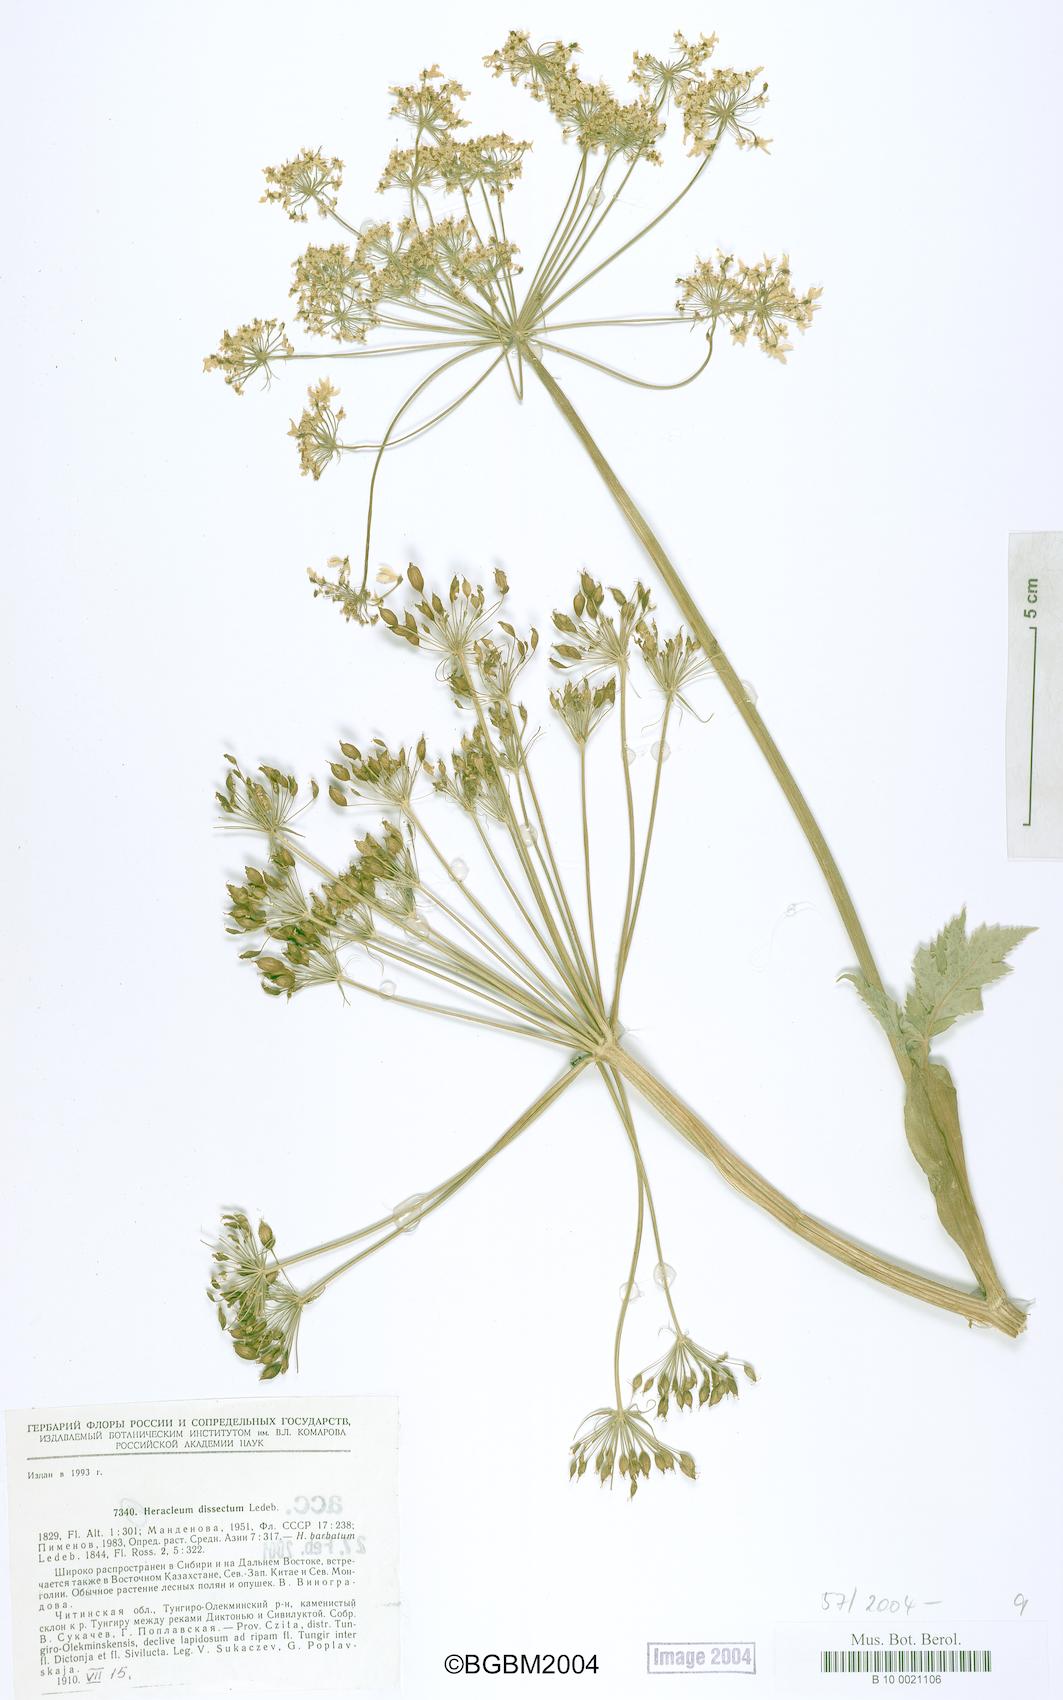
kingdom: Plantae
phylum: Tracheophyta
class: Magnoliopsida
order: Apiales
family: Apiaceae
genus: Heracleum
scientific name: Heracleum dissectum
